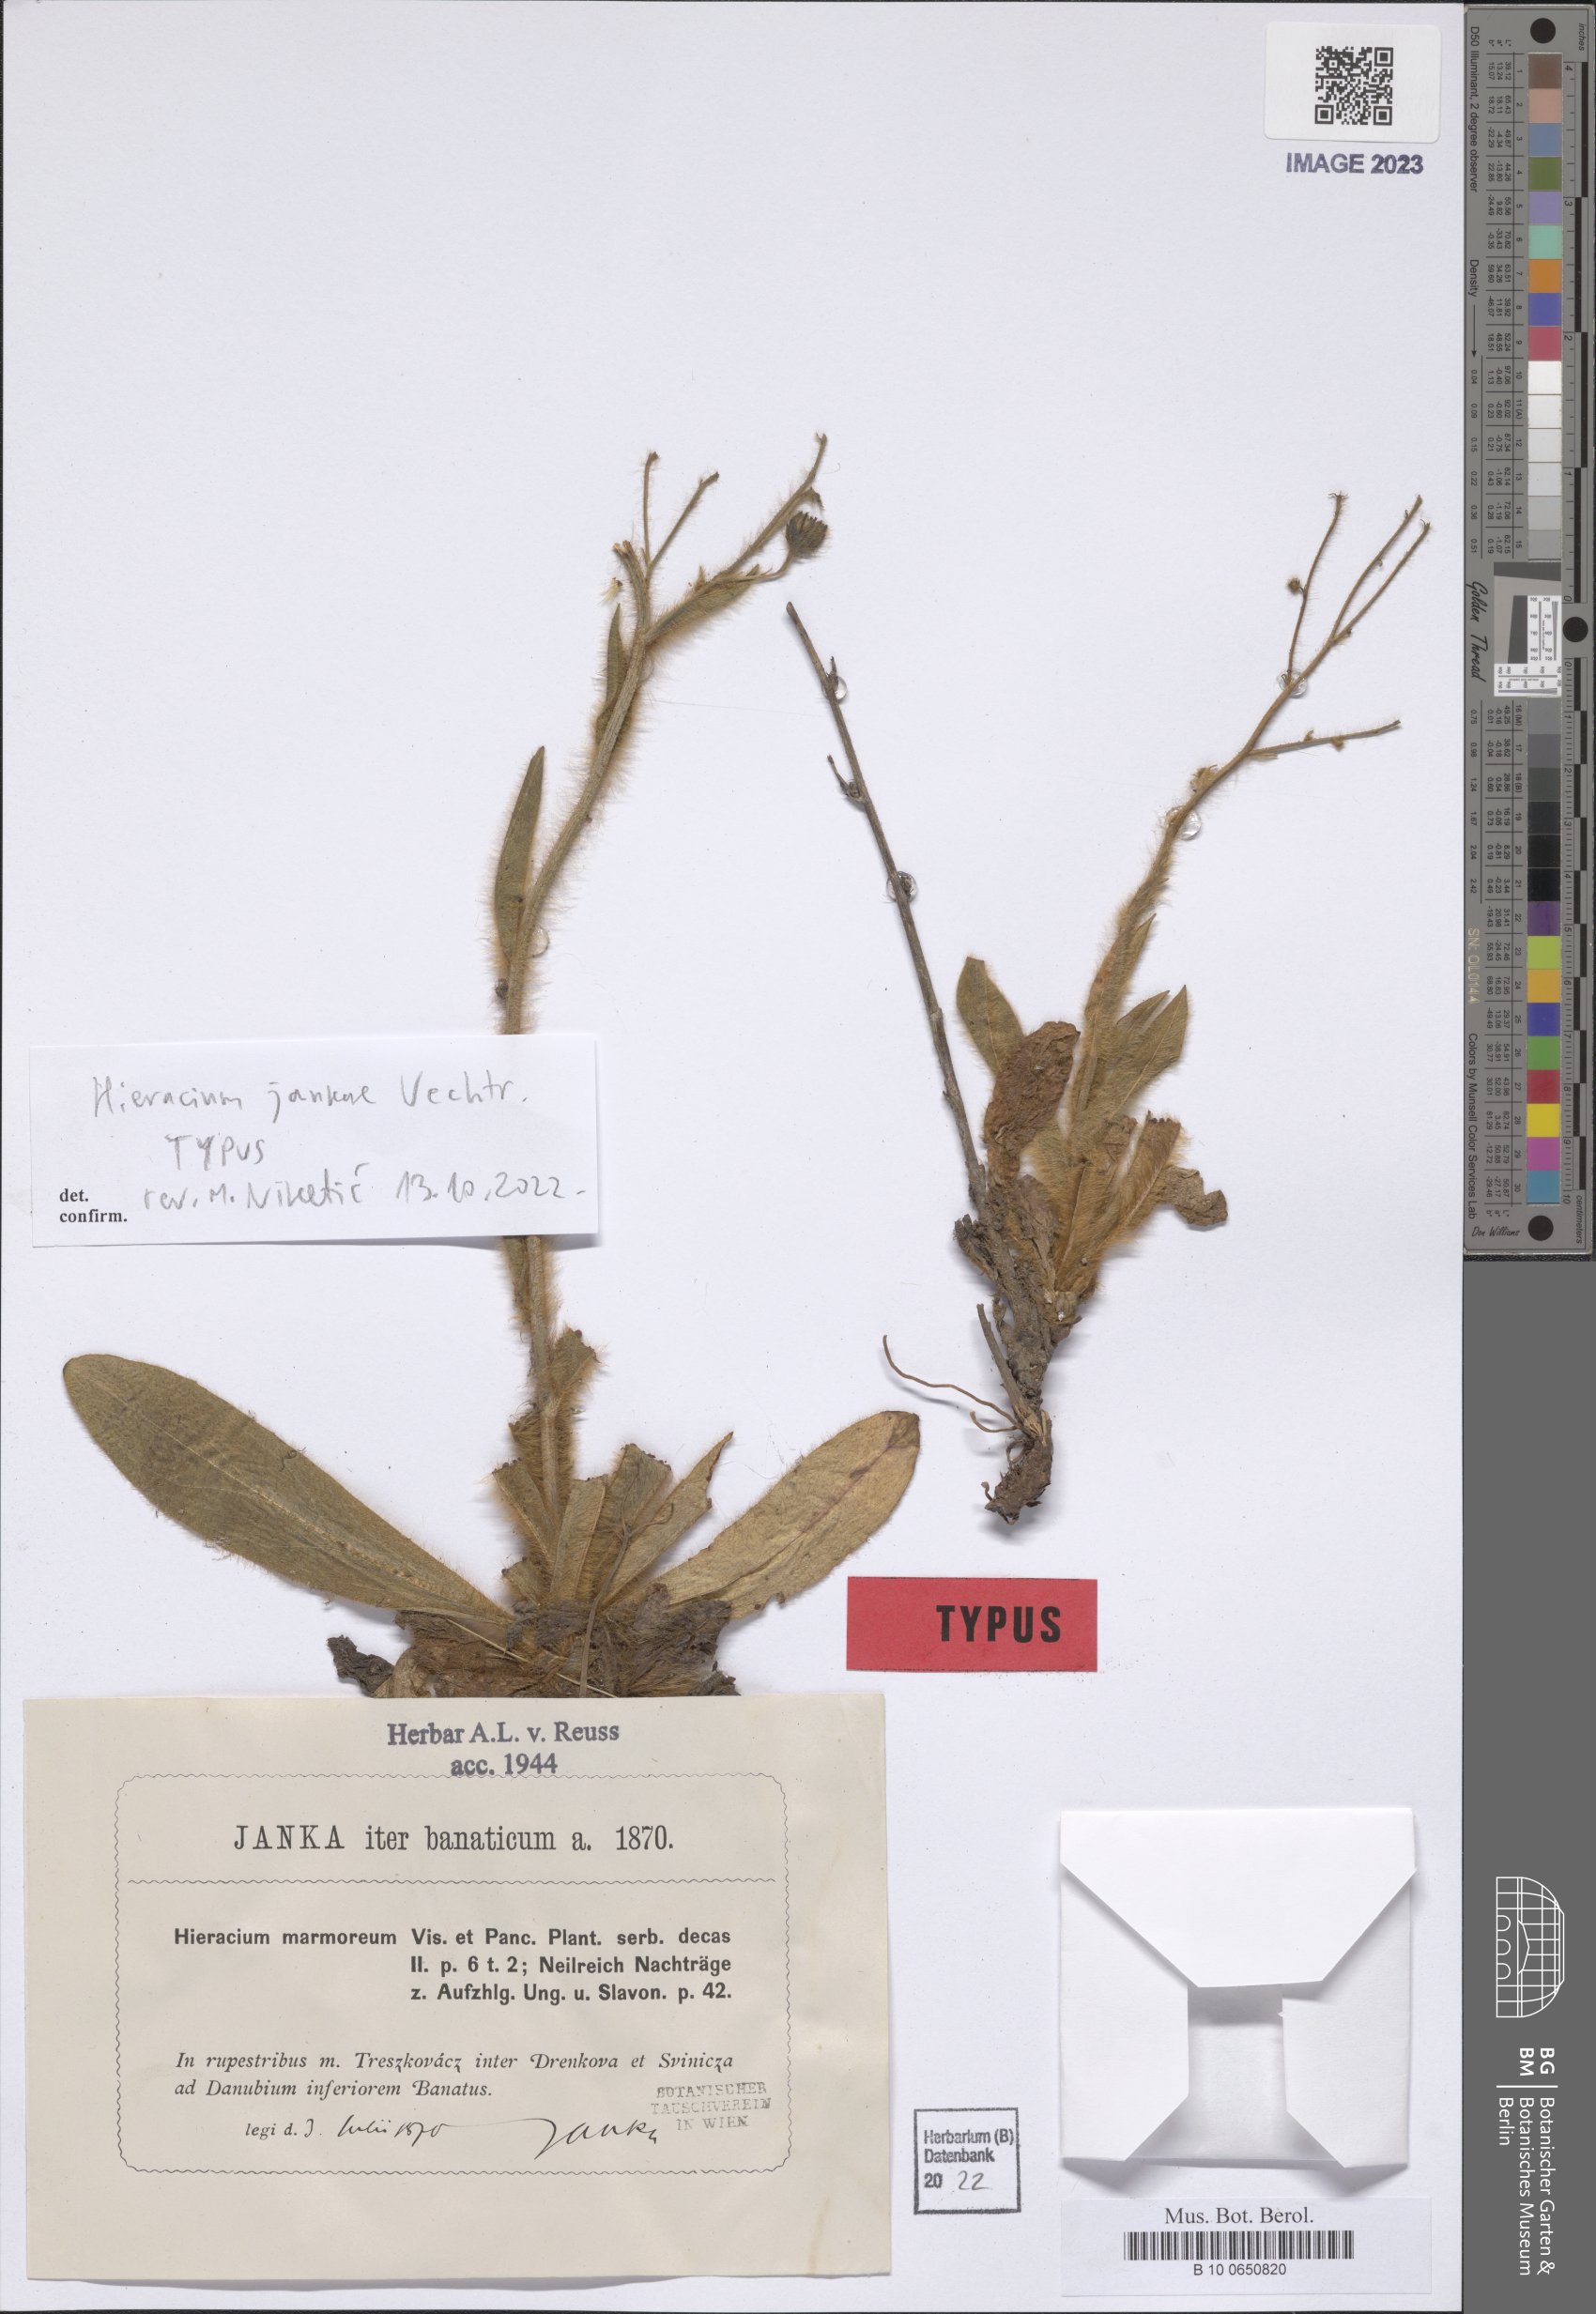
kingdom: Plantae
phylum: Tracheophyta
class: Magnoliopsida
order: Asterales
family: Asteraceae
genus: Hieracium
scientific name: Hieracium jankae
